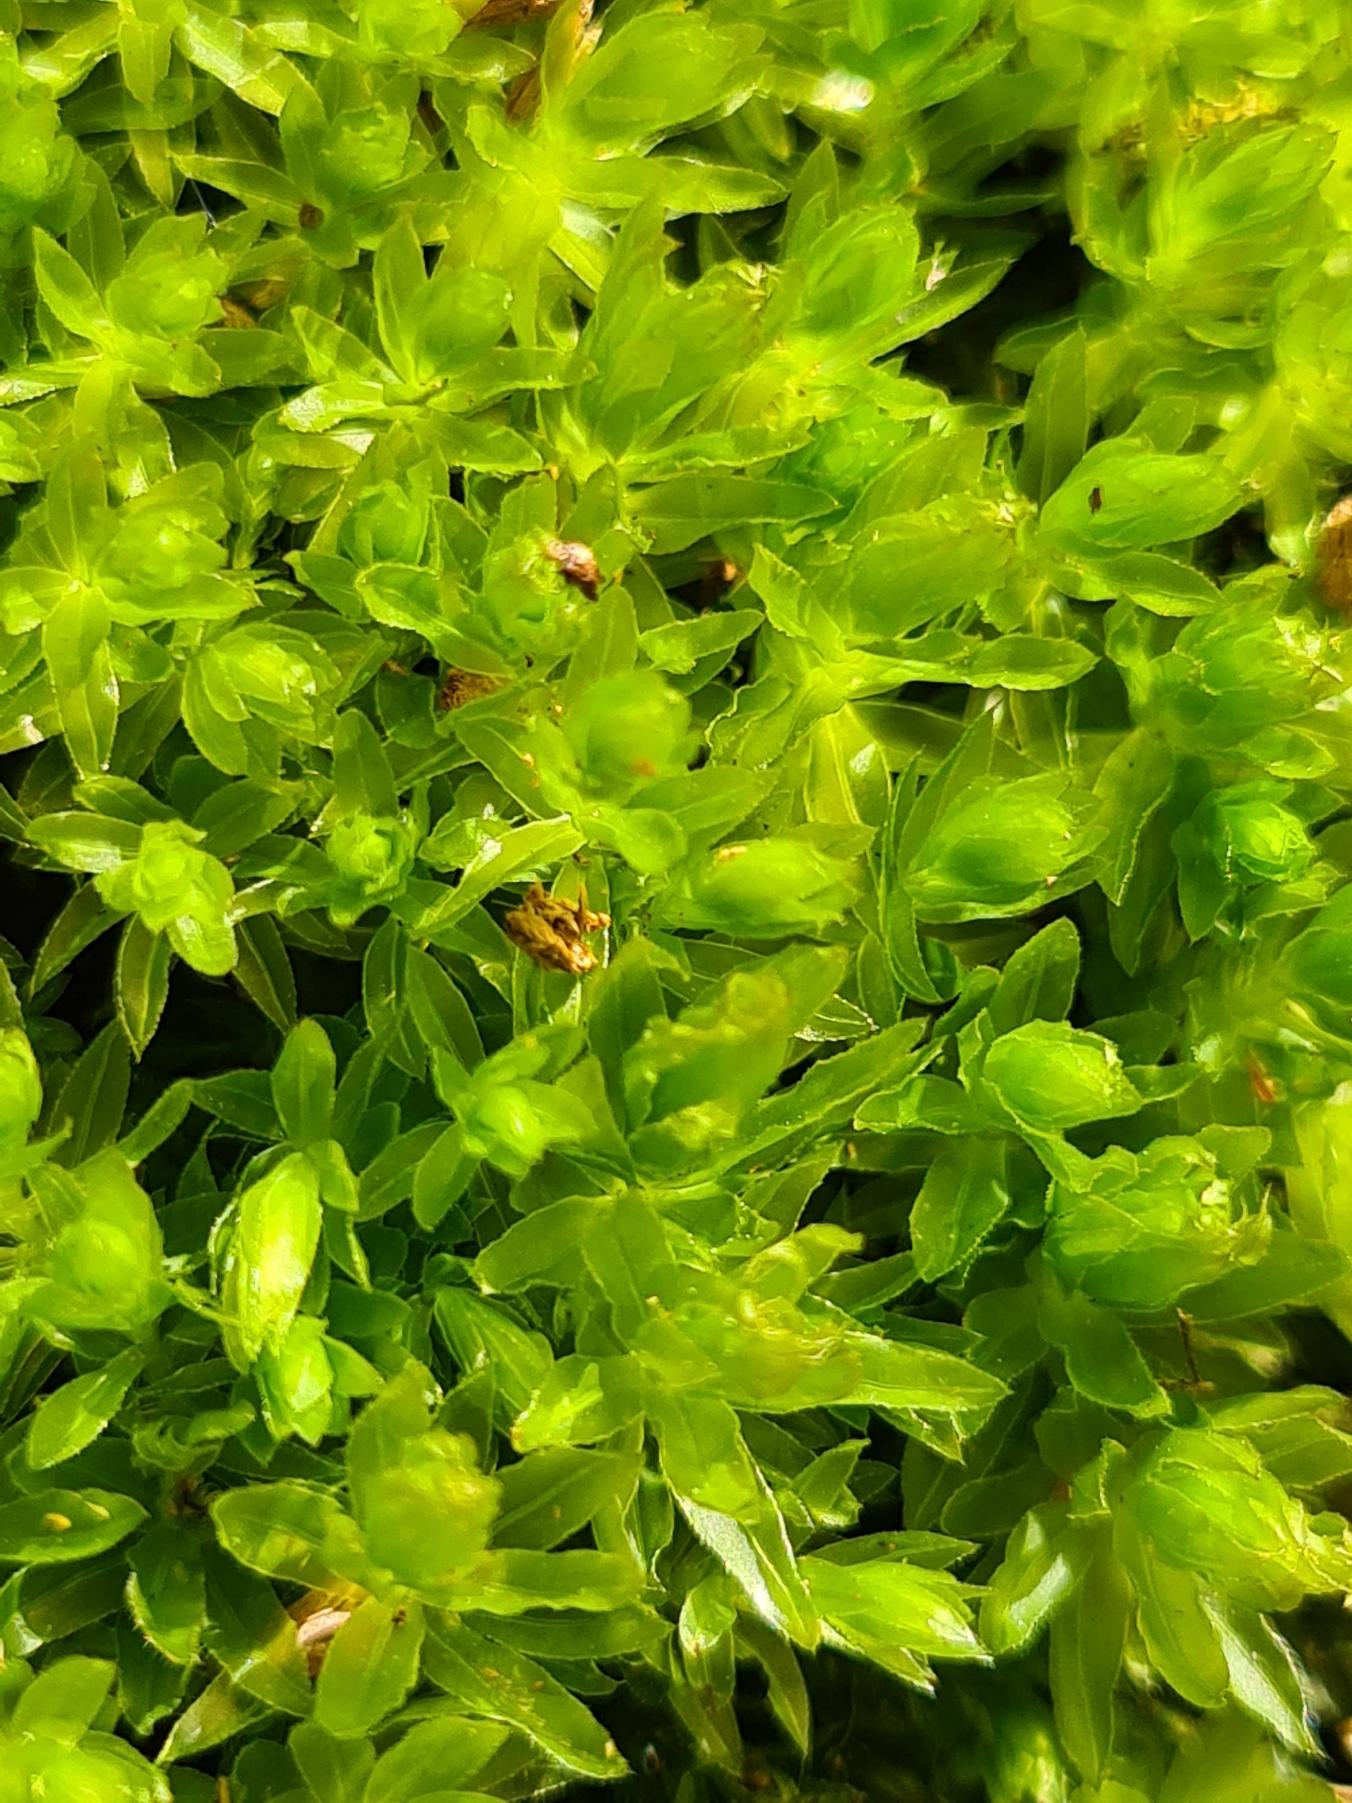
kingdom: Plantae
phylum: Bryophyta
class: Bryopsida
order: Bryales
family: Mniaceae
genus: Mnium
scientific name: Mnium hornum
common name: Brunfiltet stjernemos
